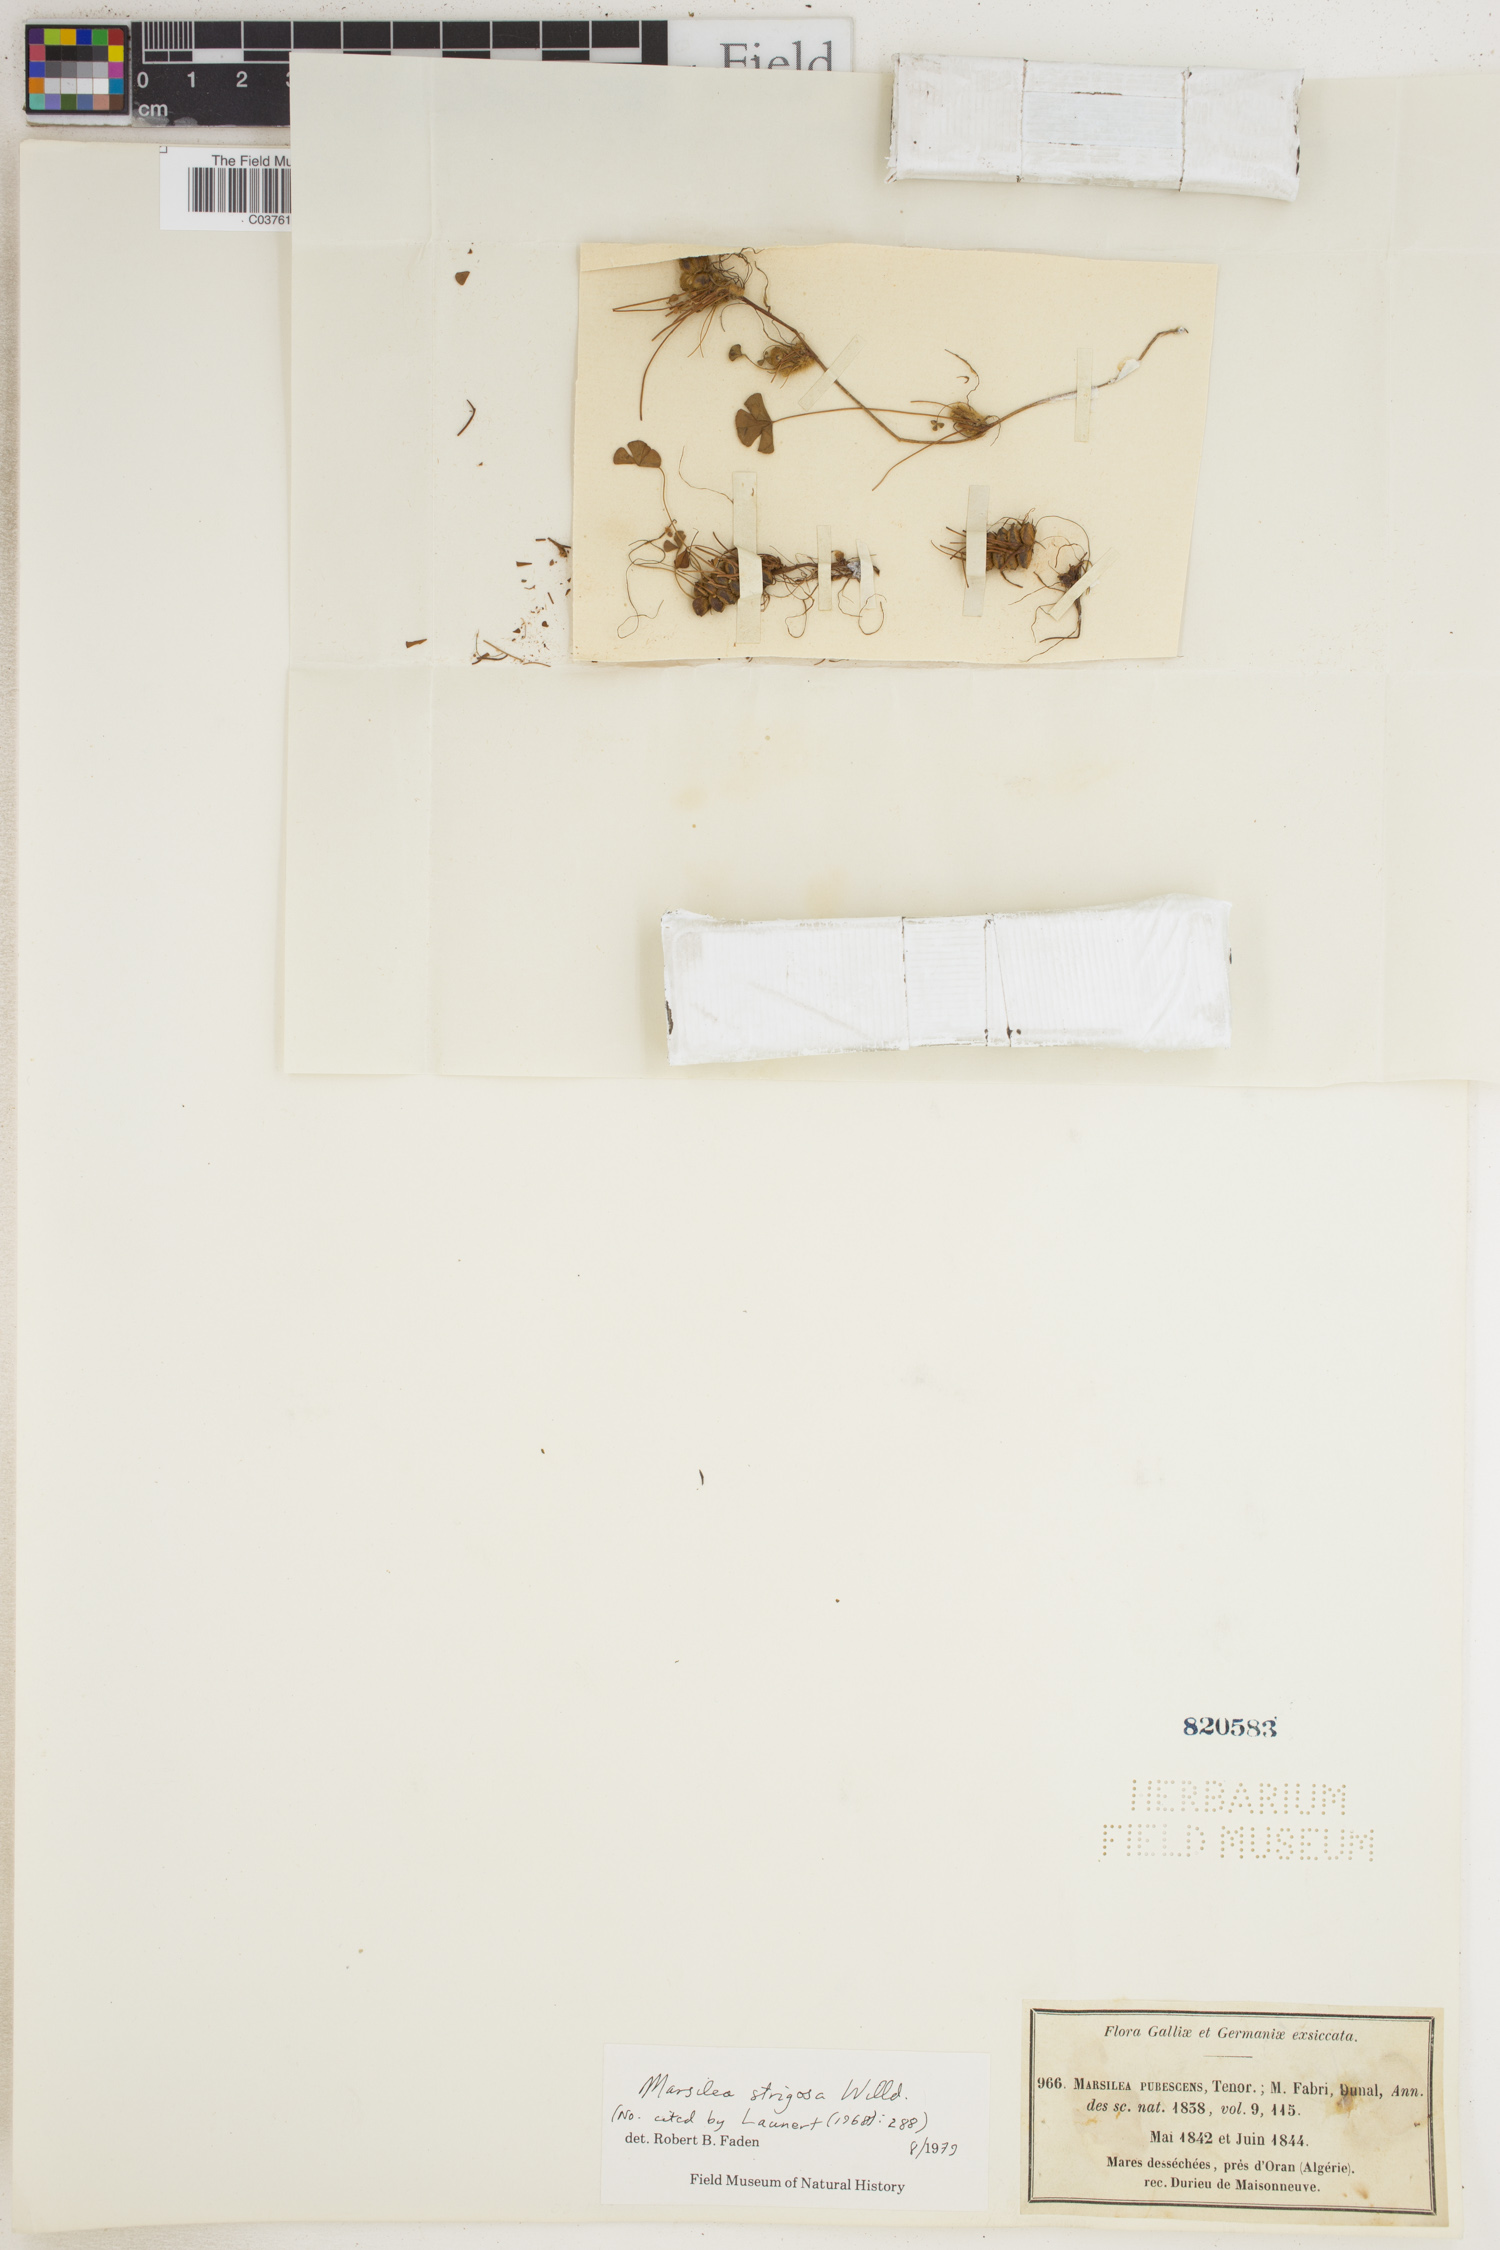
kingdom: Plantae
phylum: Tracheophyta
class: Polypodiopsida
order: Salviniales
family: Marsileaceae
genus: Marsilea
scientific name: Marsilea strigosa
